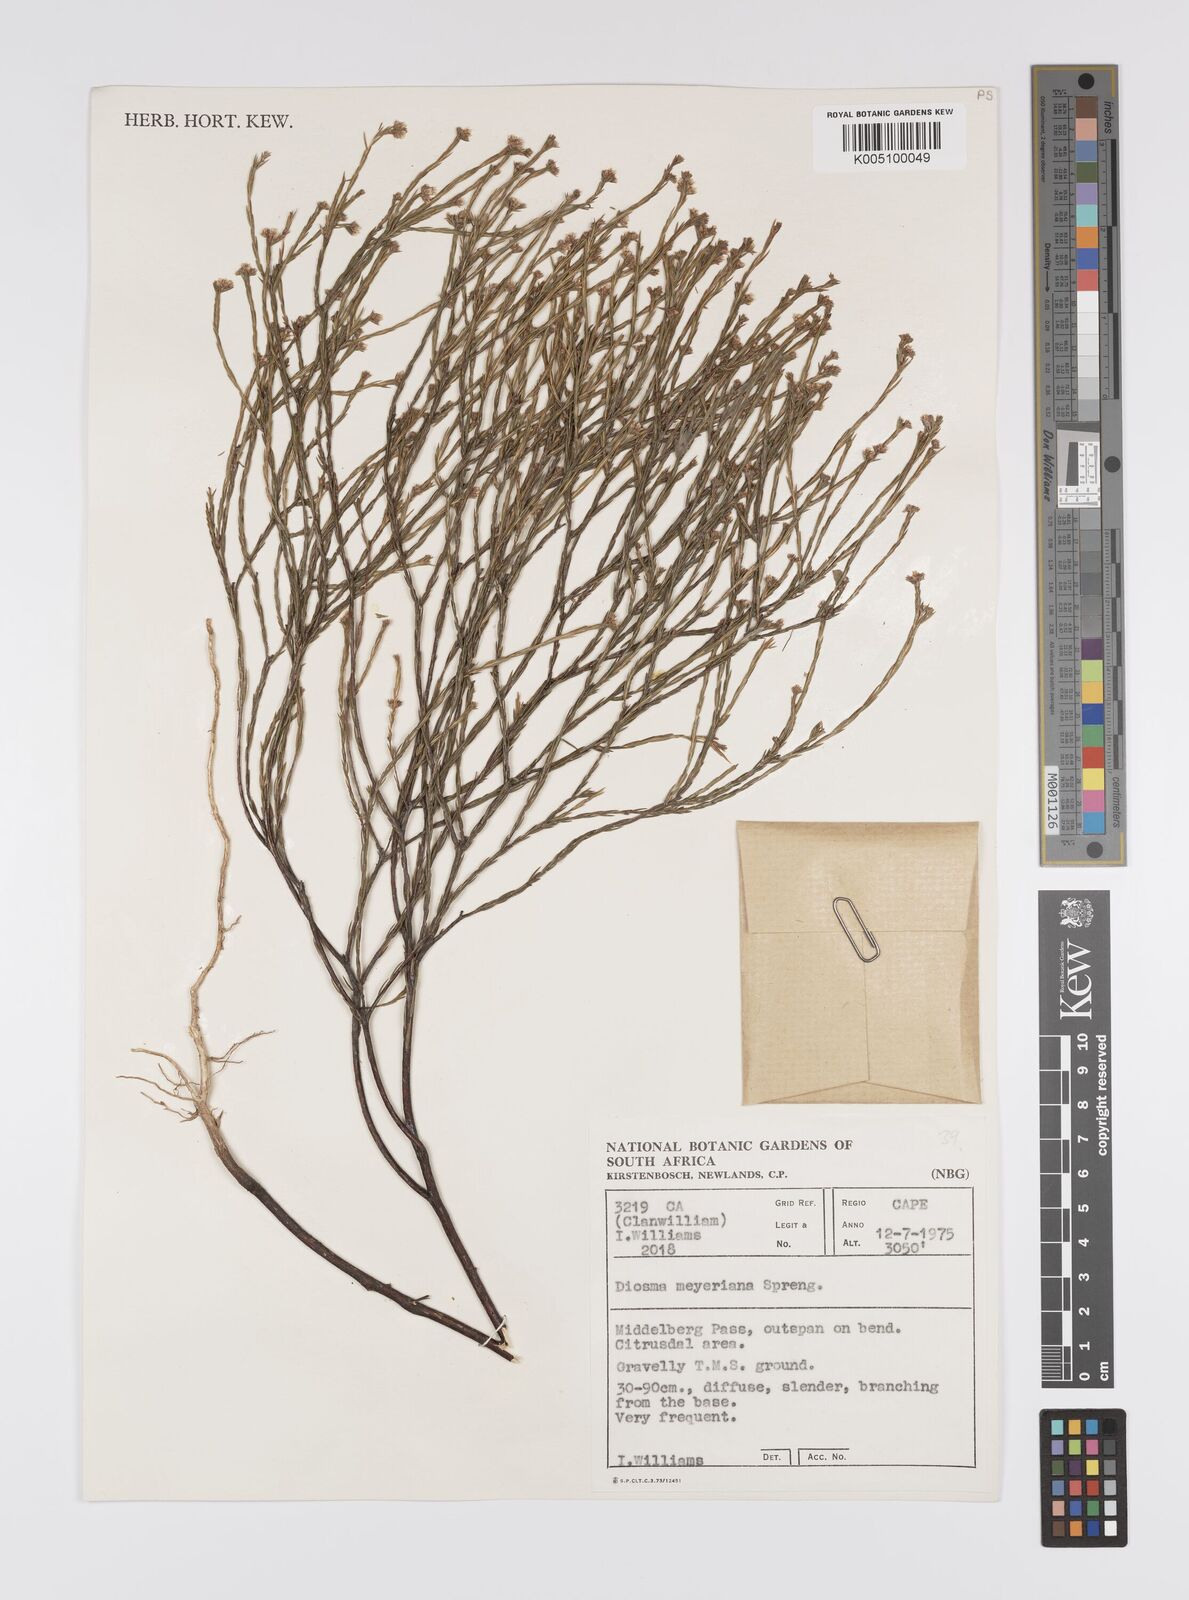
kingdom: Plantae
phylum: Tracheophyta
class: Magnoliopsida
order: Sapindales
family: Rutaceae
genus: Agathosma
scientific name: Agathosma virgata
